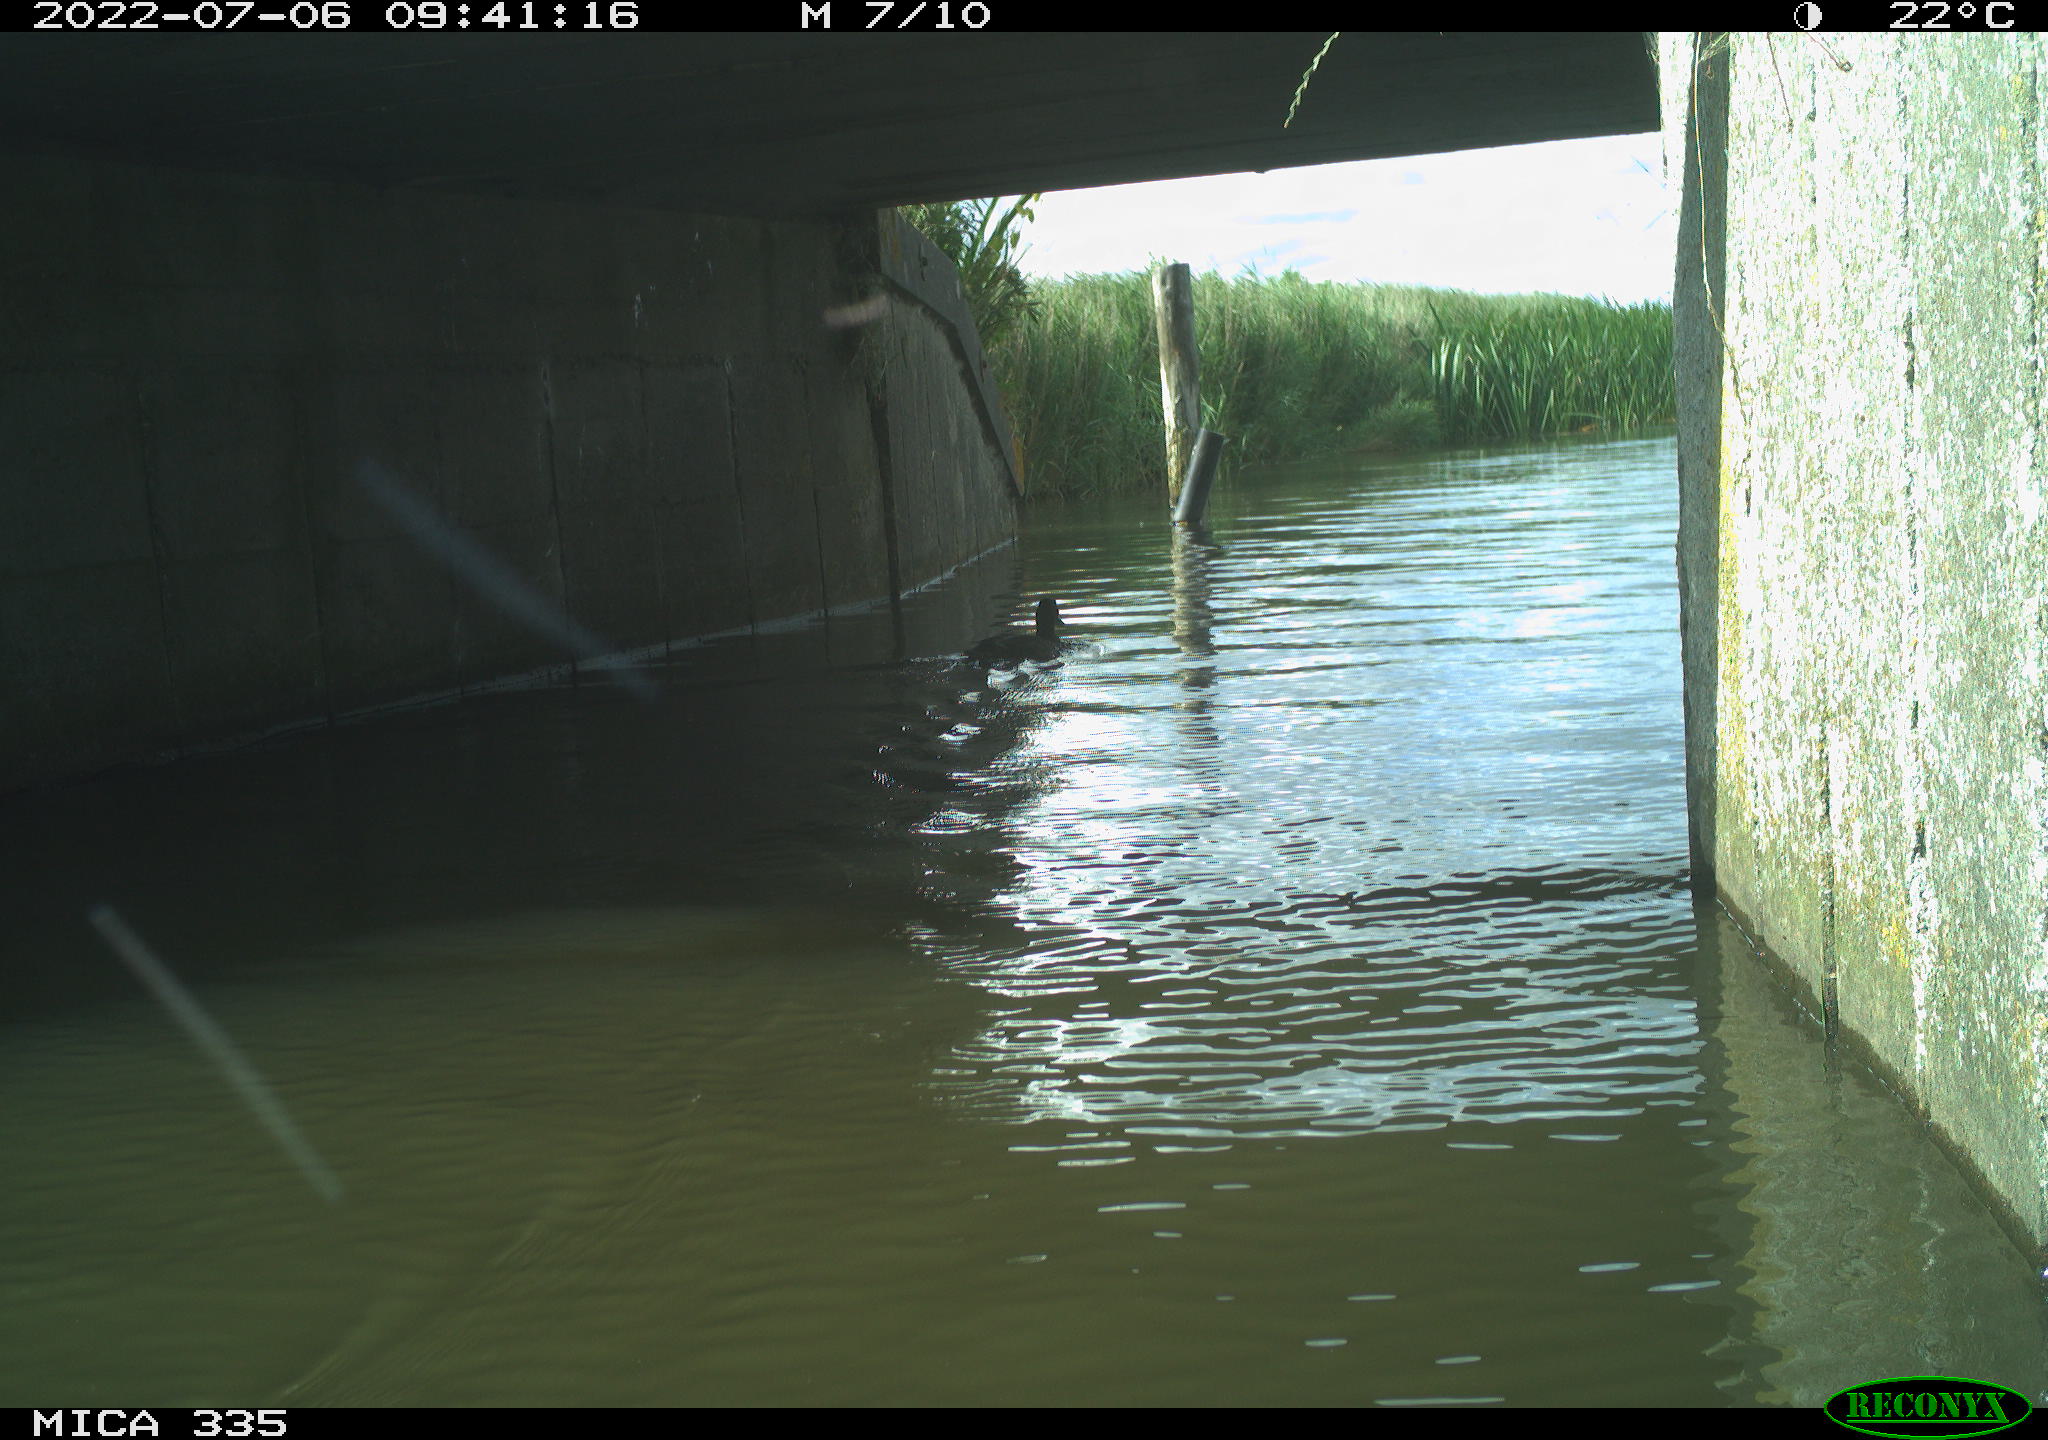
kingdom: Animalia
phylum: Chordata
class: Aves
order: Anseriformes
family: Anatidae
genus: Anas
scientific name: Anas platyrhynchos
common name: Mallard
